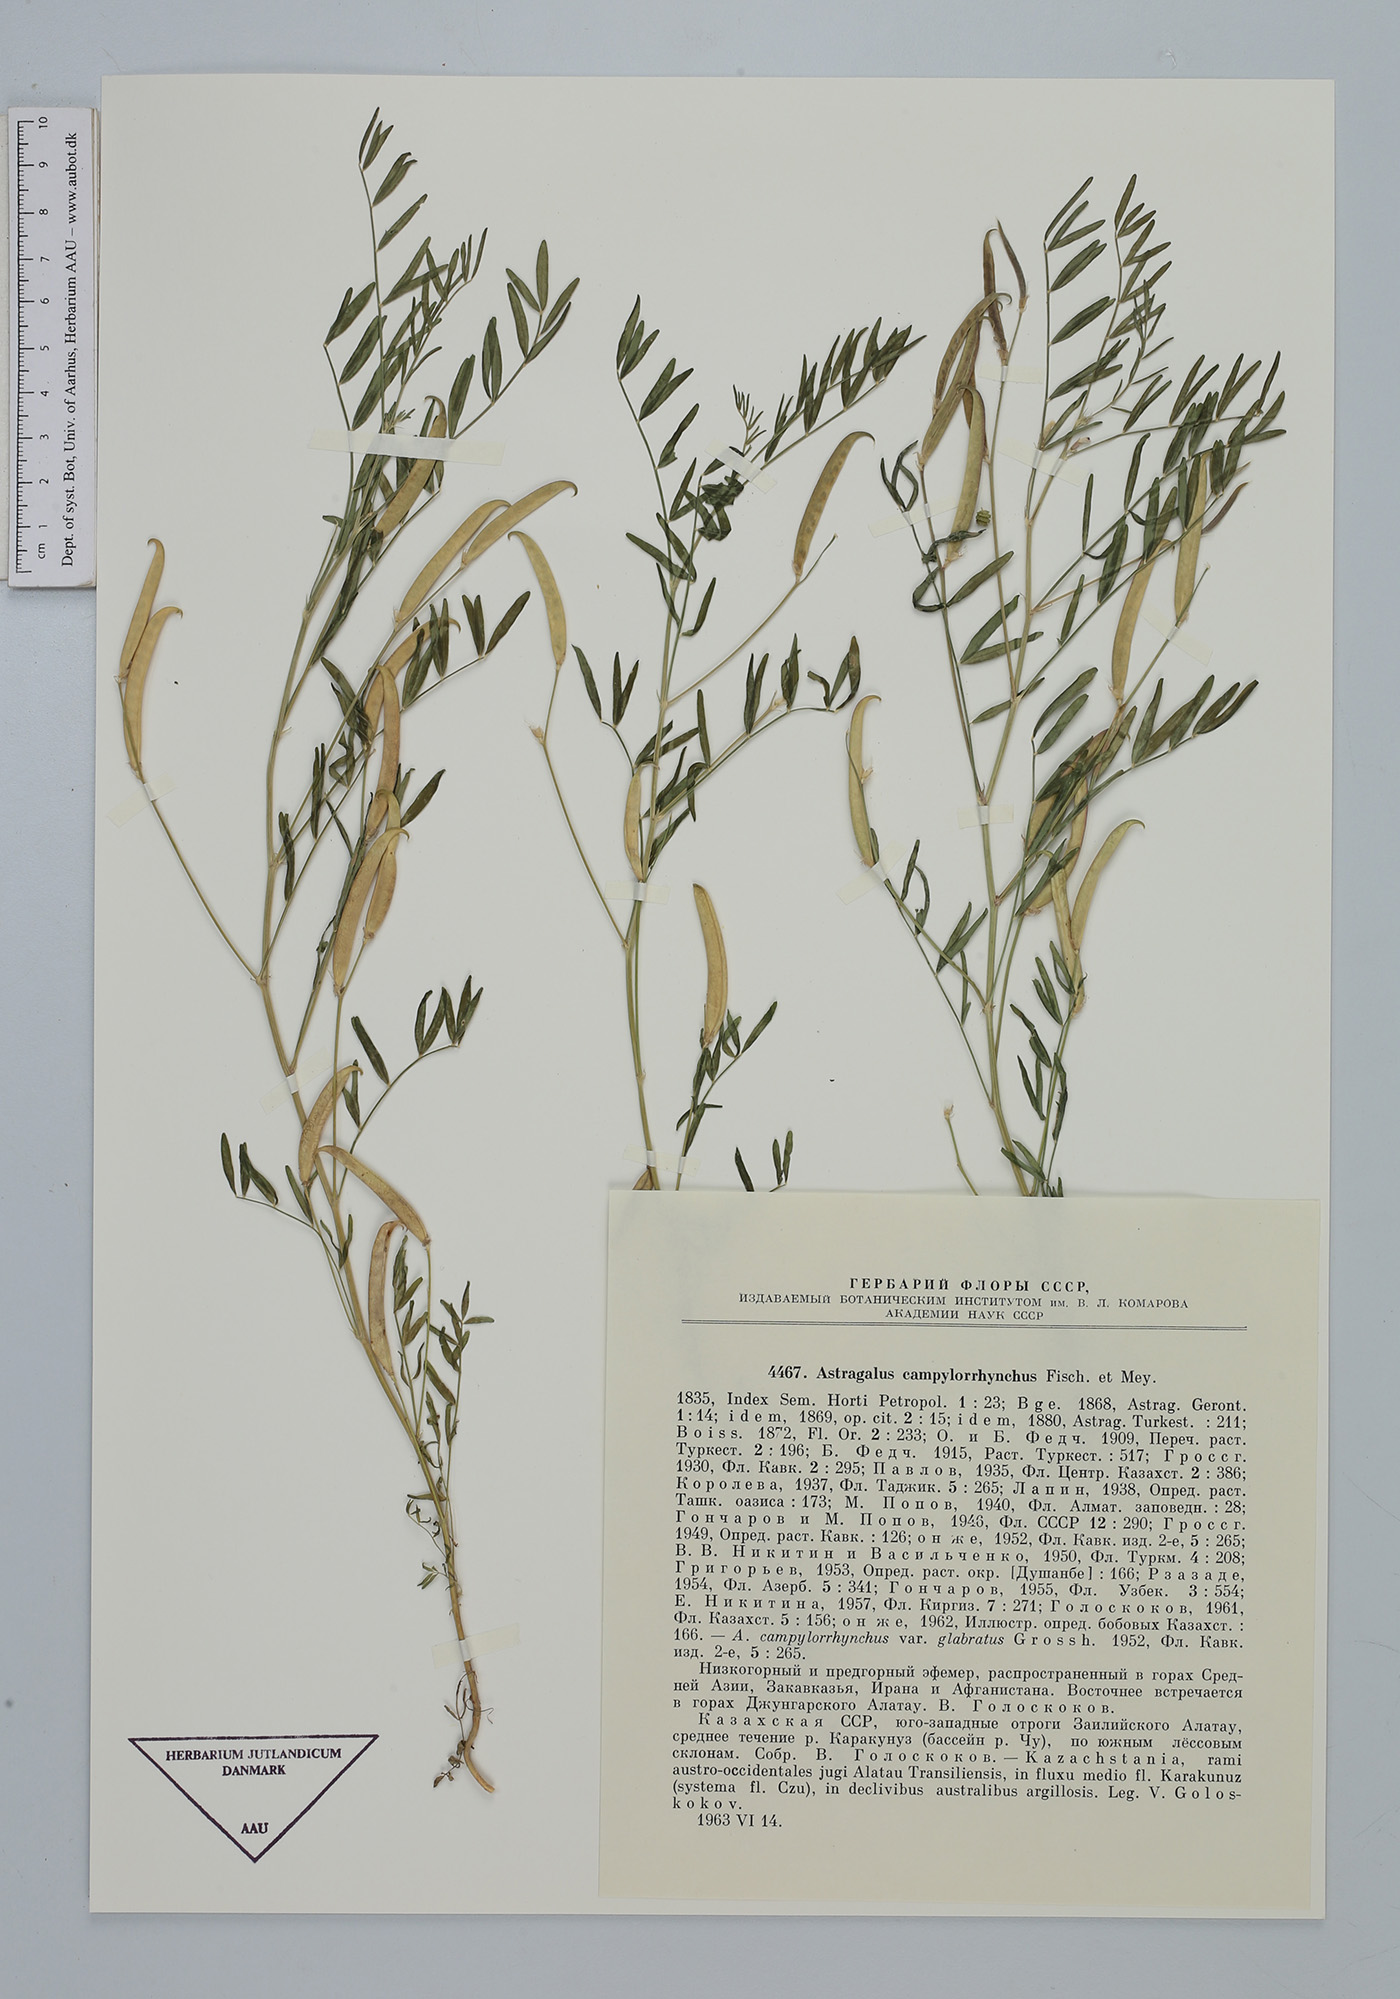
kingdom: Plantae
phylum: Tracheophyta
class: Magnoliopsida
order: Fabales
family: Fabaceae
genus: Astragalus
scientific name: Astragalus campylorrhynchus
